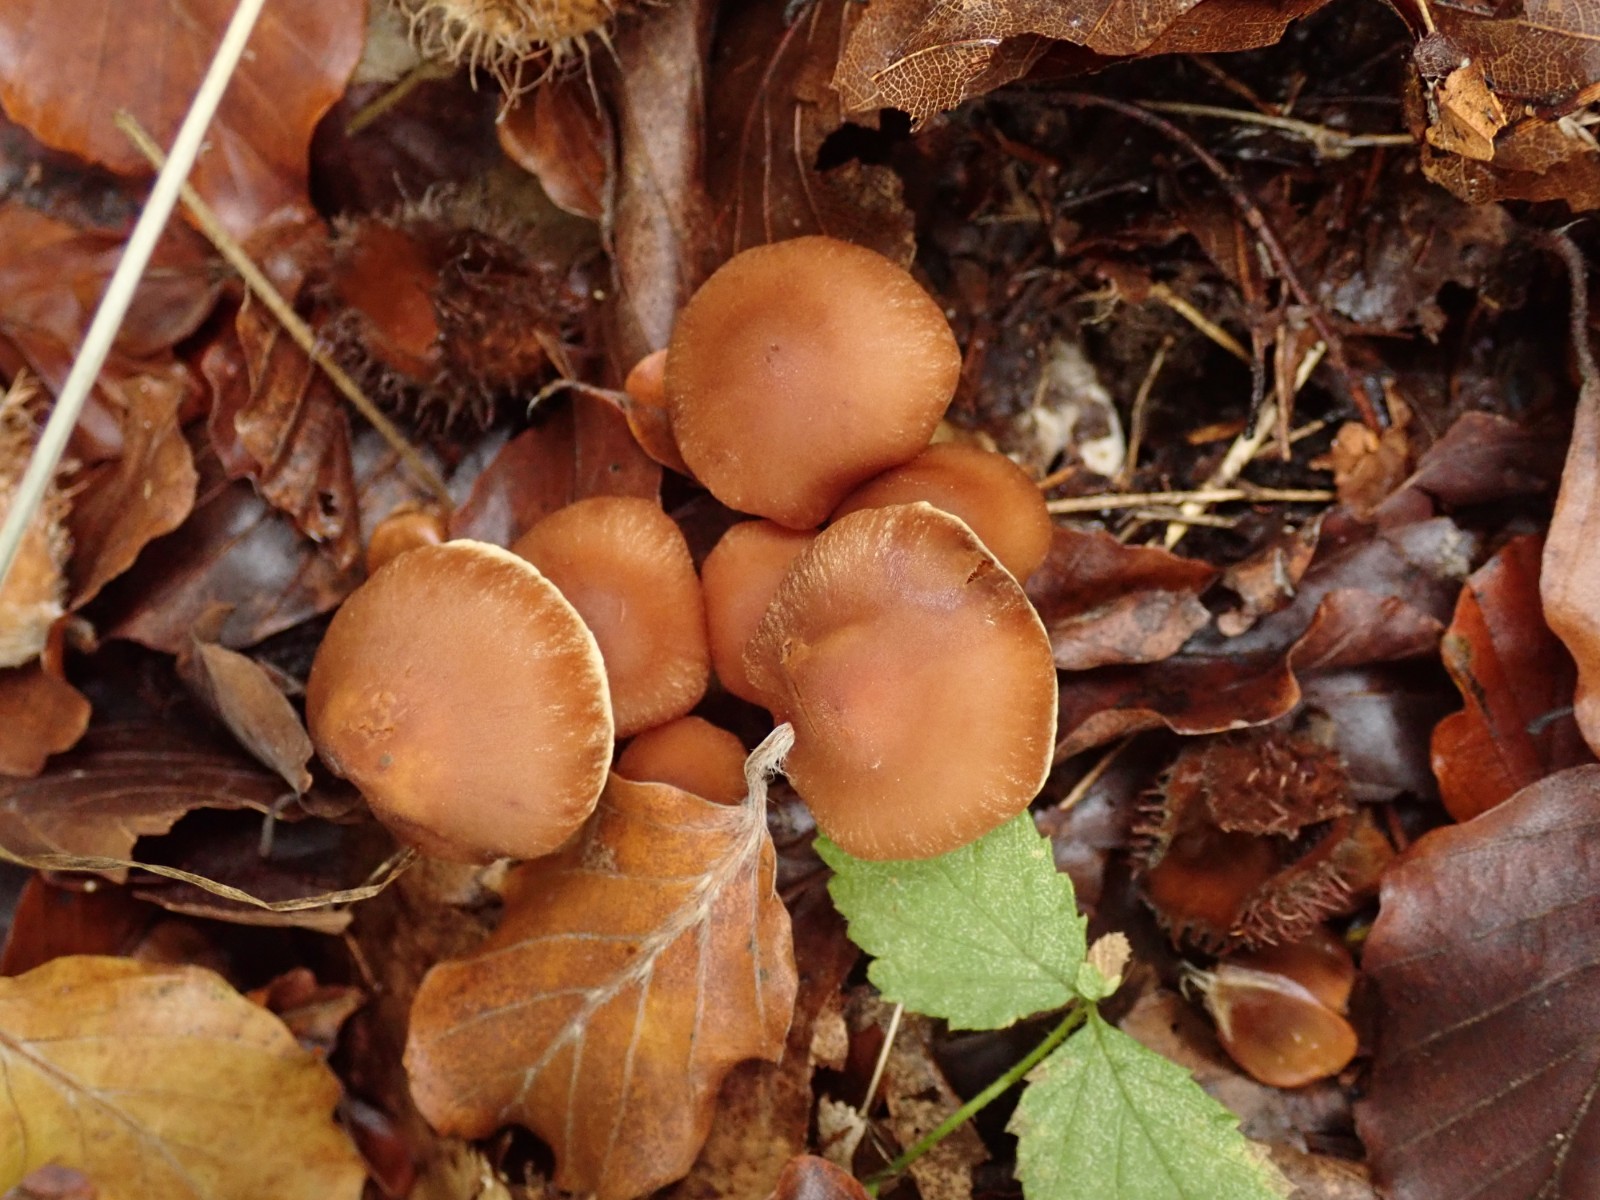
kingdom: Fungi
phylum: Basidiomycota
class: Agaricomycetes
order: Agaricales
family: Cortinariaceae
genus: Cortinarius
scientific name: Cortinarius
